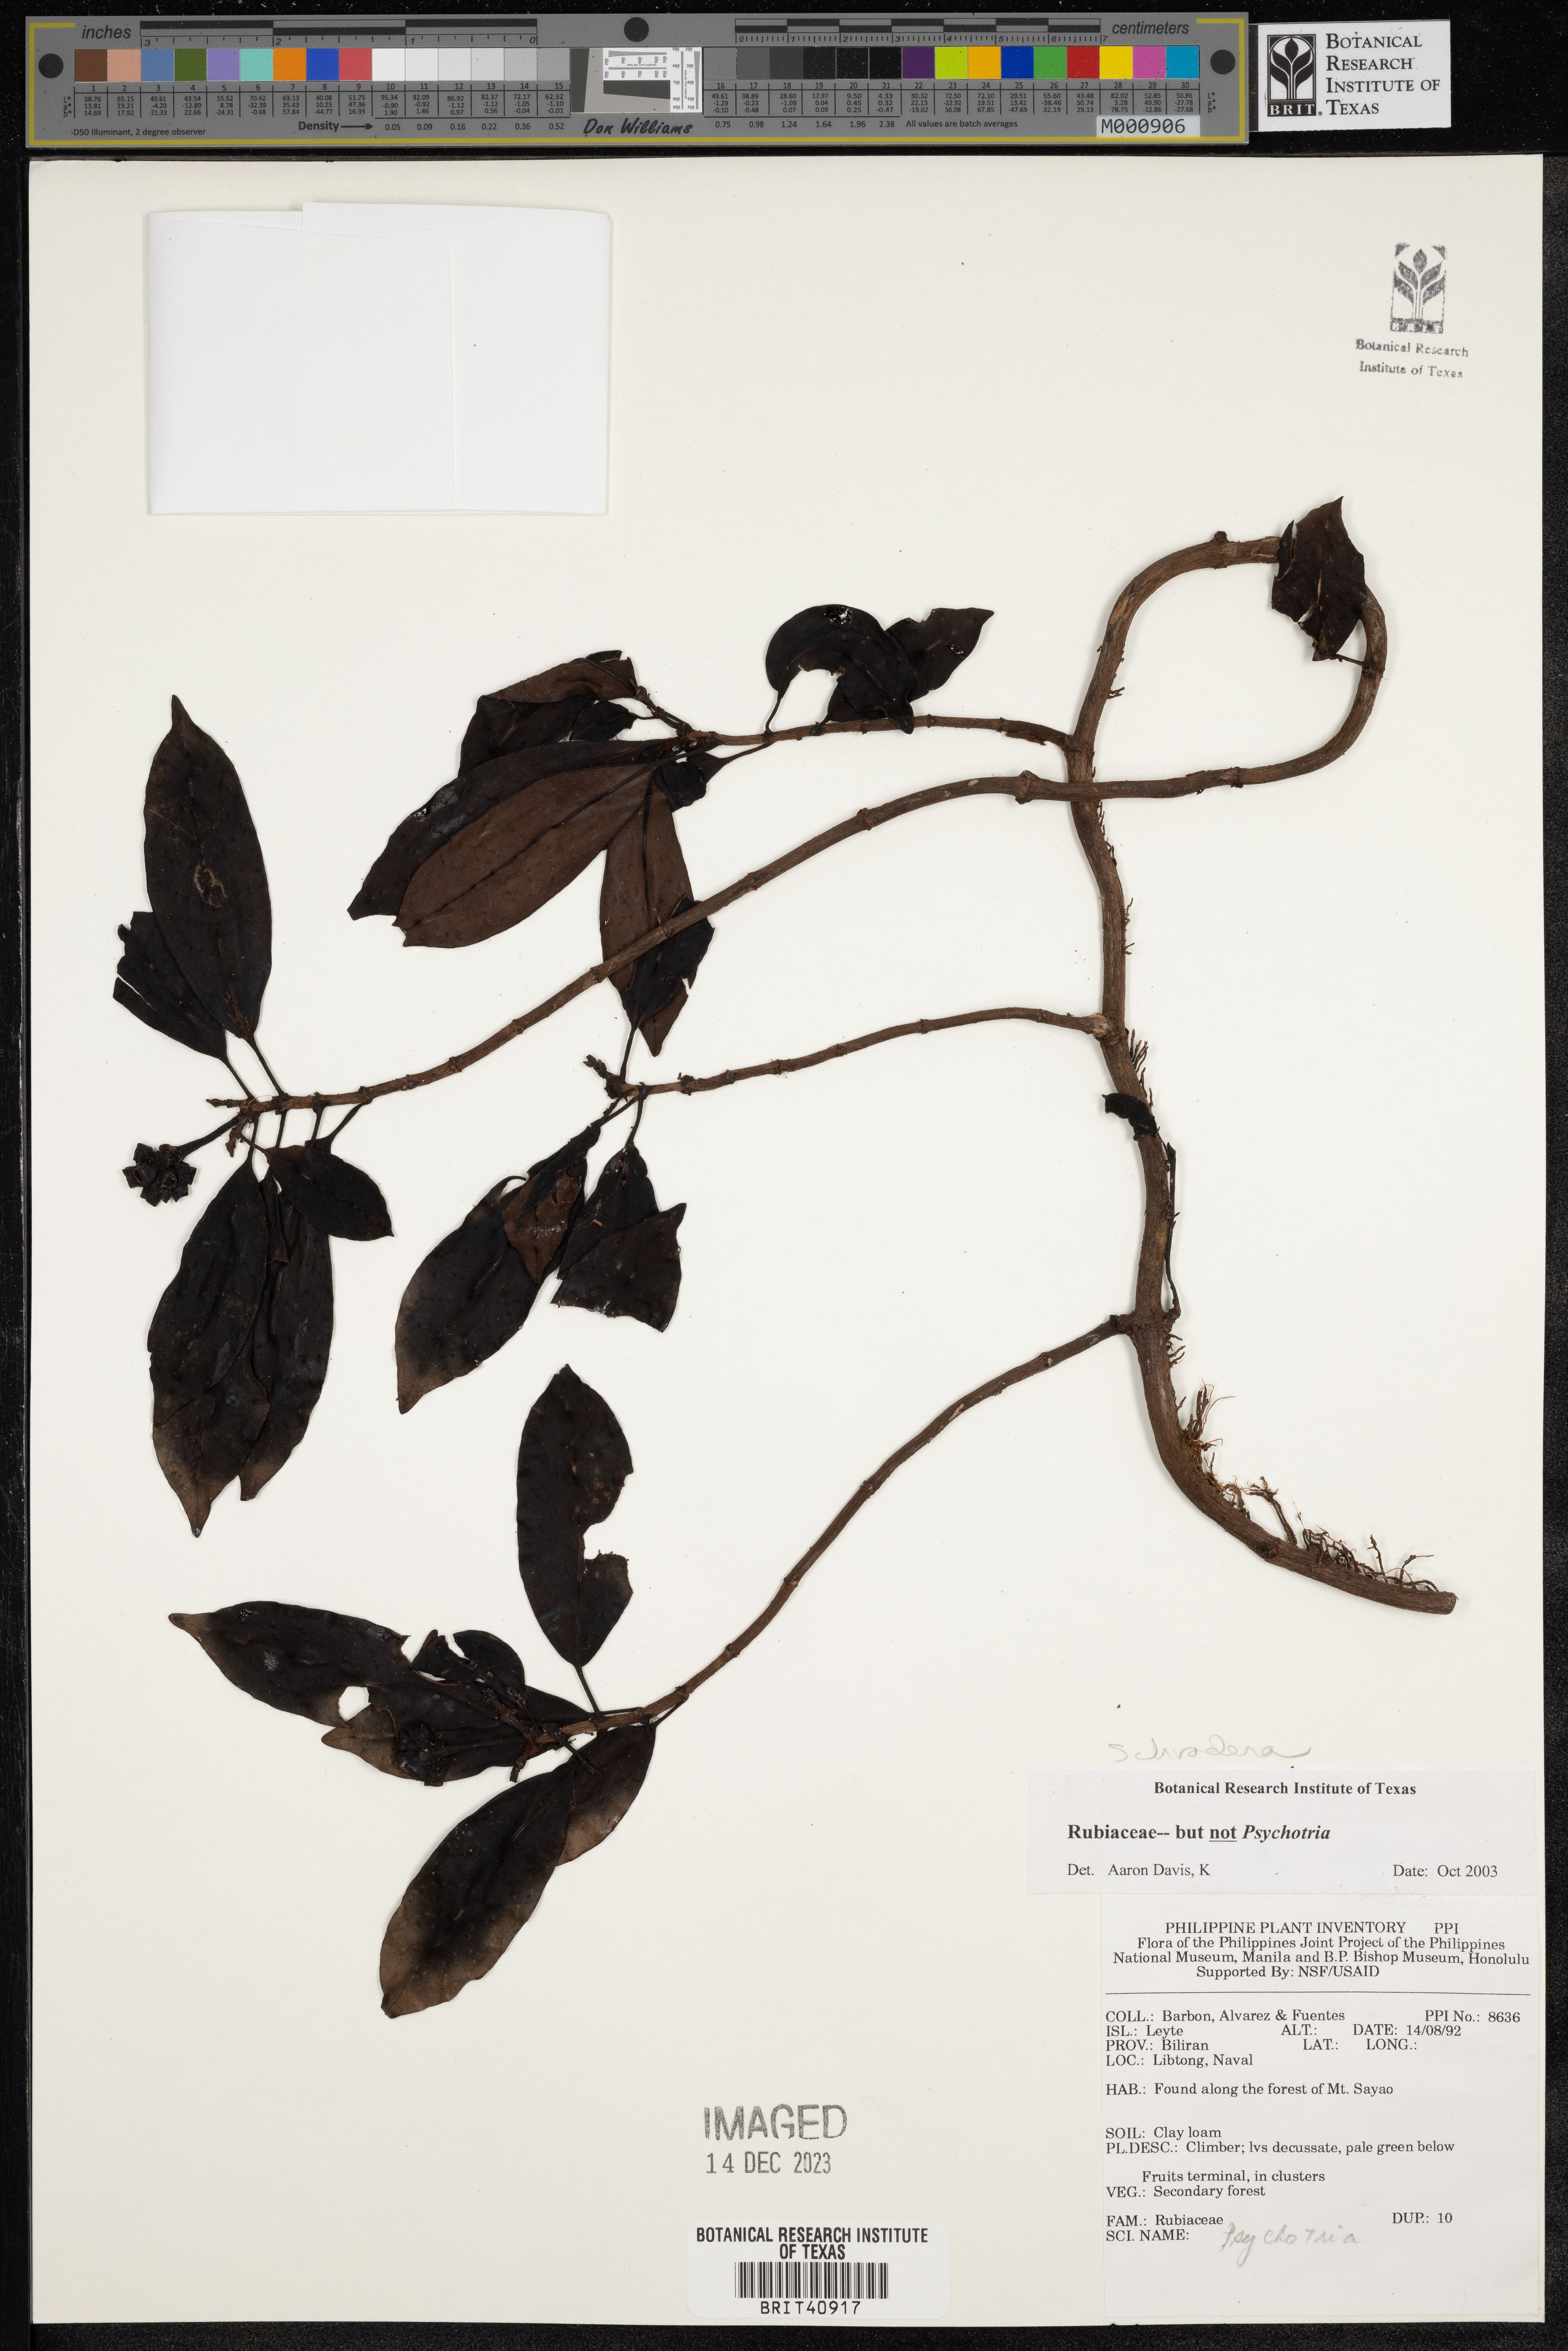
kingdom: Plantae
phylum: Tracheophyta
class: Magnoliopsida
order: Gentianales
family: Rubiaceae
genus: Schradera
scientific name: Schradera
